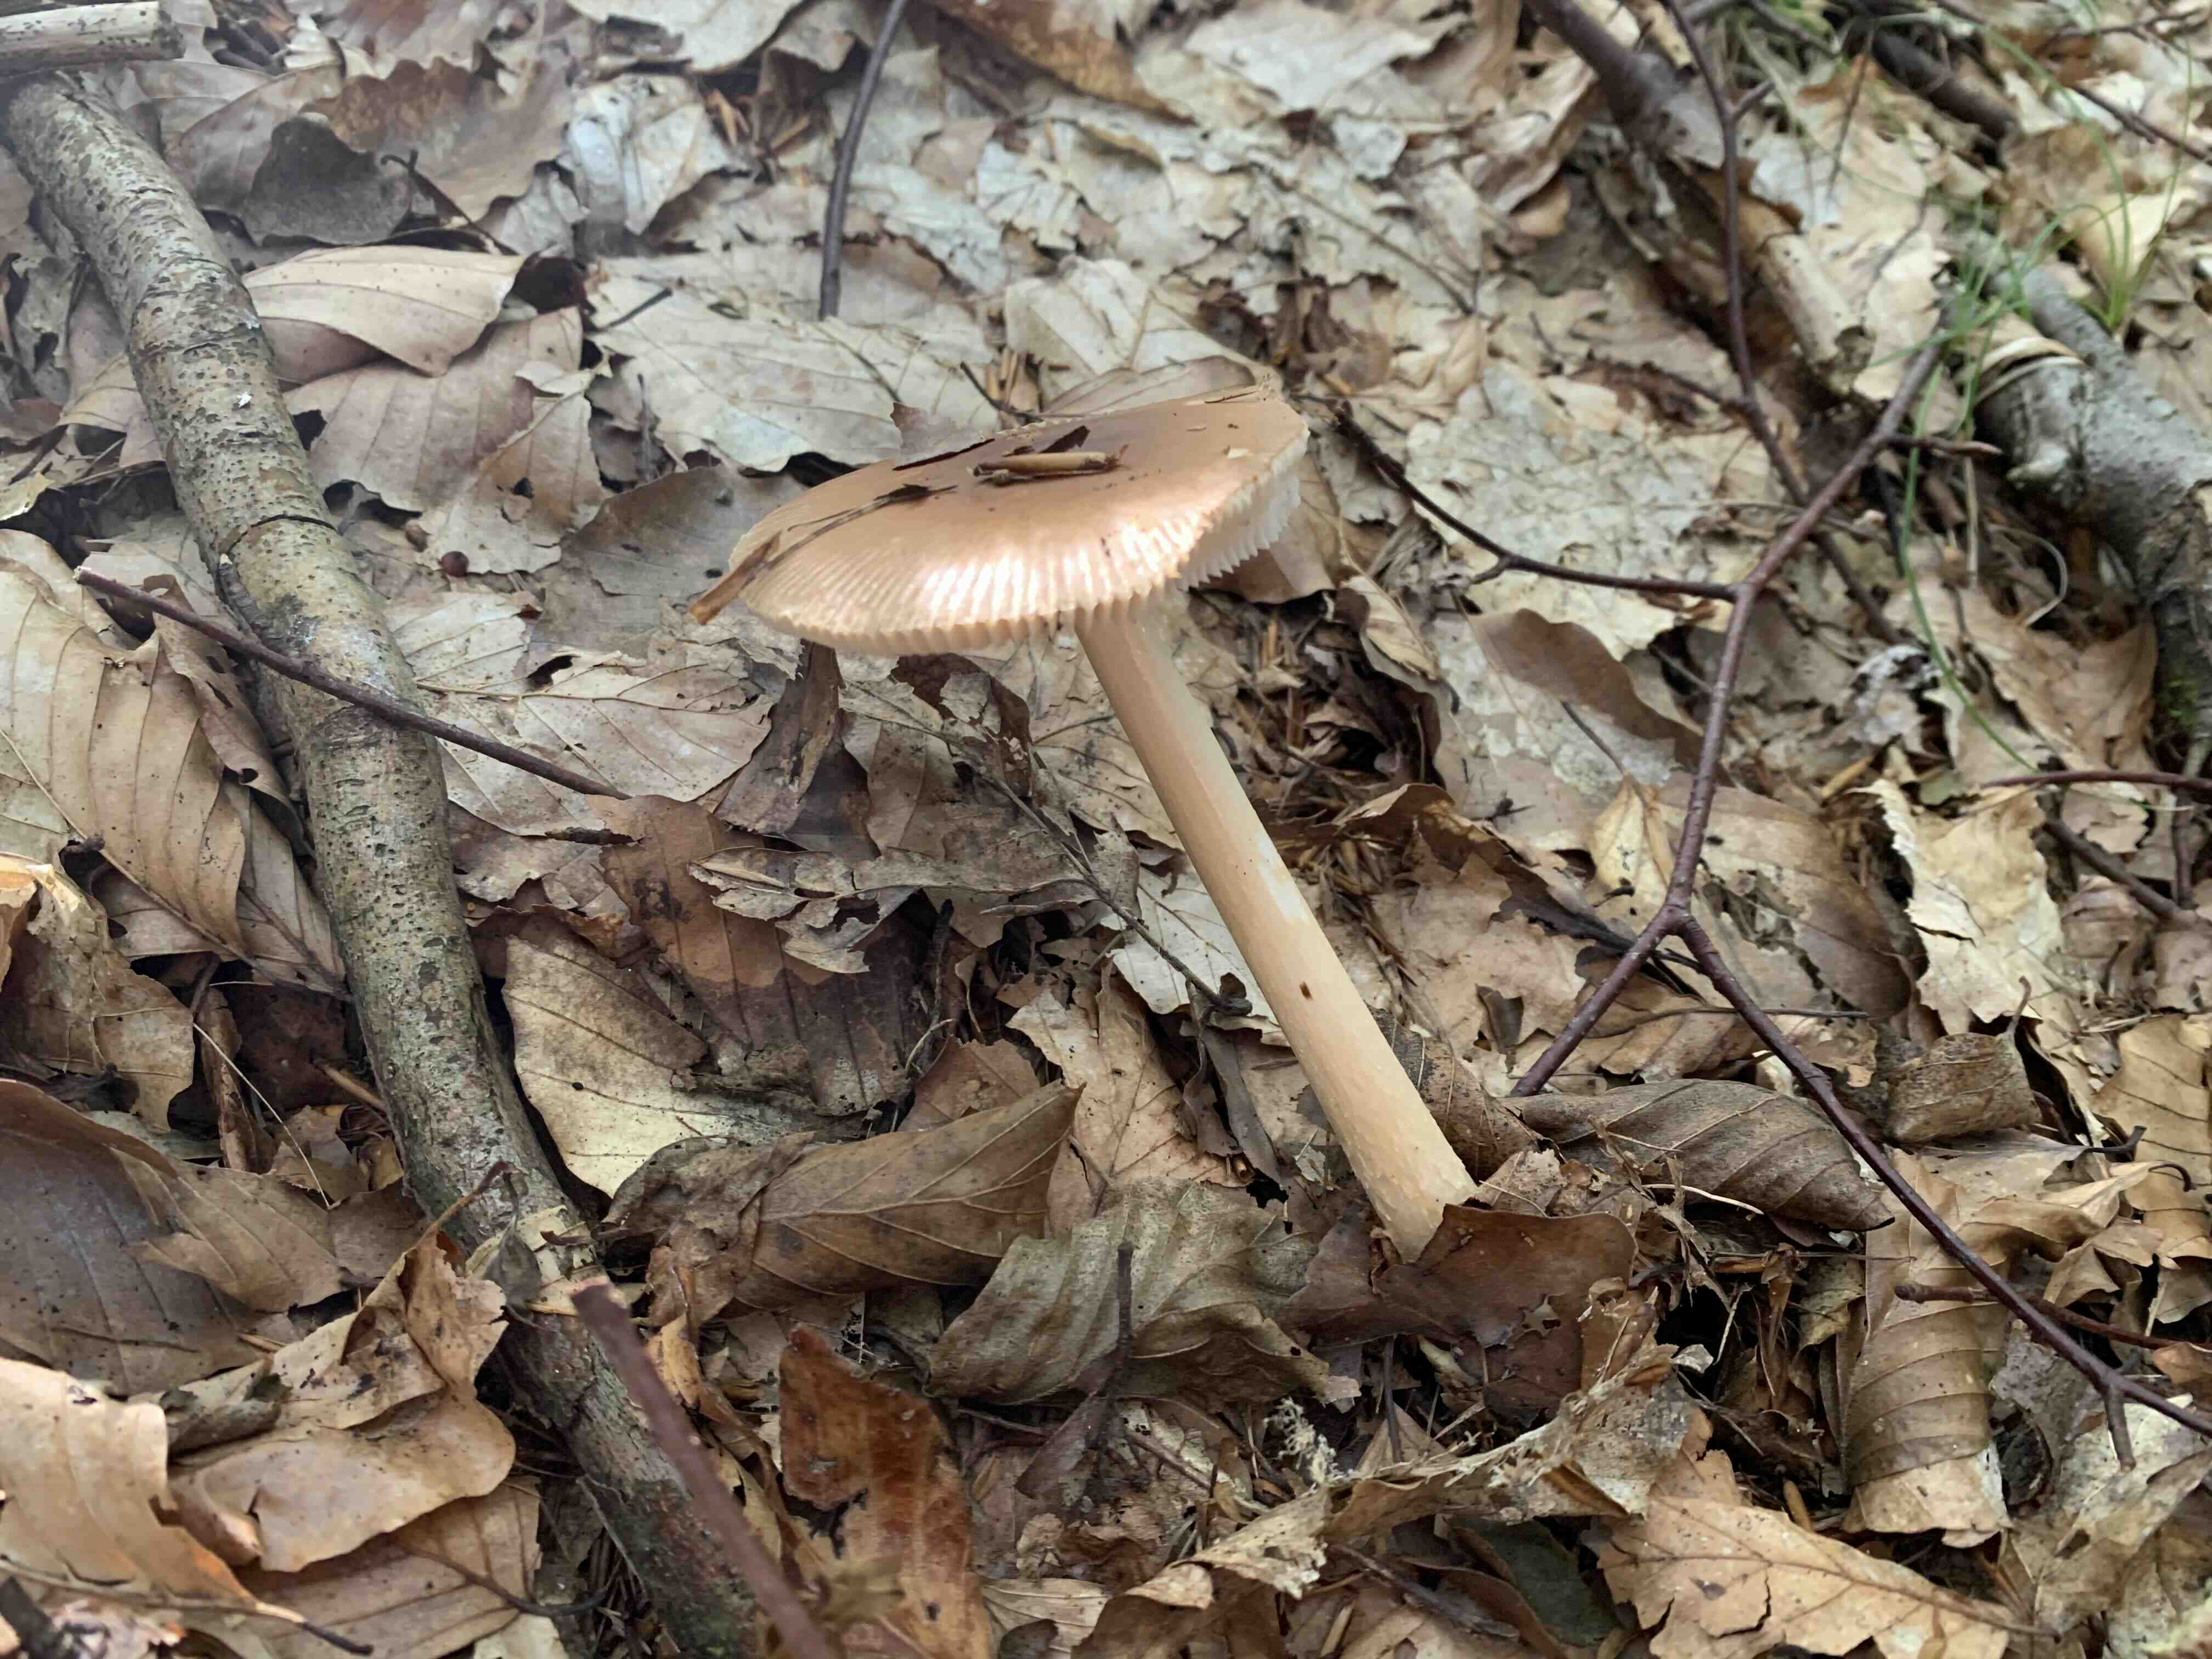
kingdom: Fungi
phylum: Basidiomycota
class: Agaricomycetes
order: Agaricales
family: Amanitaceae
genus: Amanita
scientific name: Amanita fulva
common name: brun kam-fluesvamp
